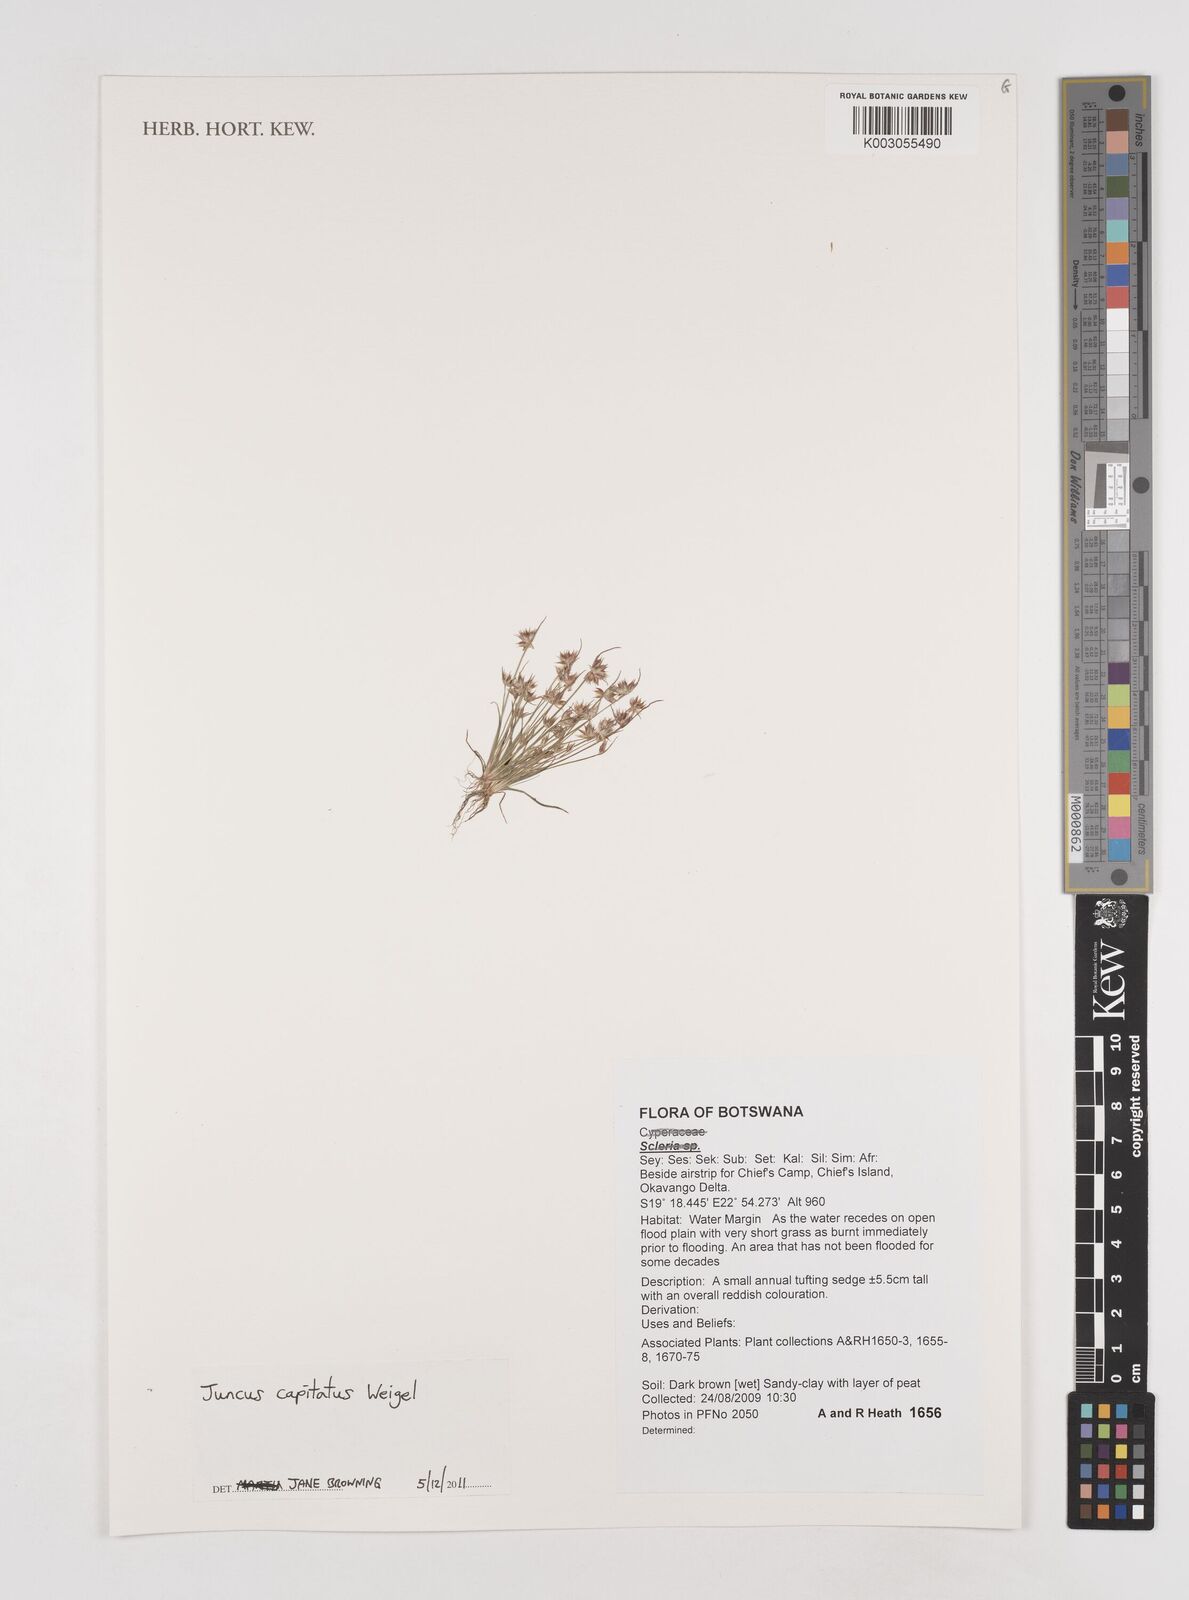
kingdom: Plantae
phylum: Tracheophyta
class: Liliopsida
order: Poales
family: Juncaceae
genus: Juncus
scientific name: Juncus capitatus
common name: Dwarf rush
